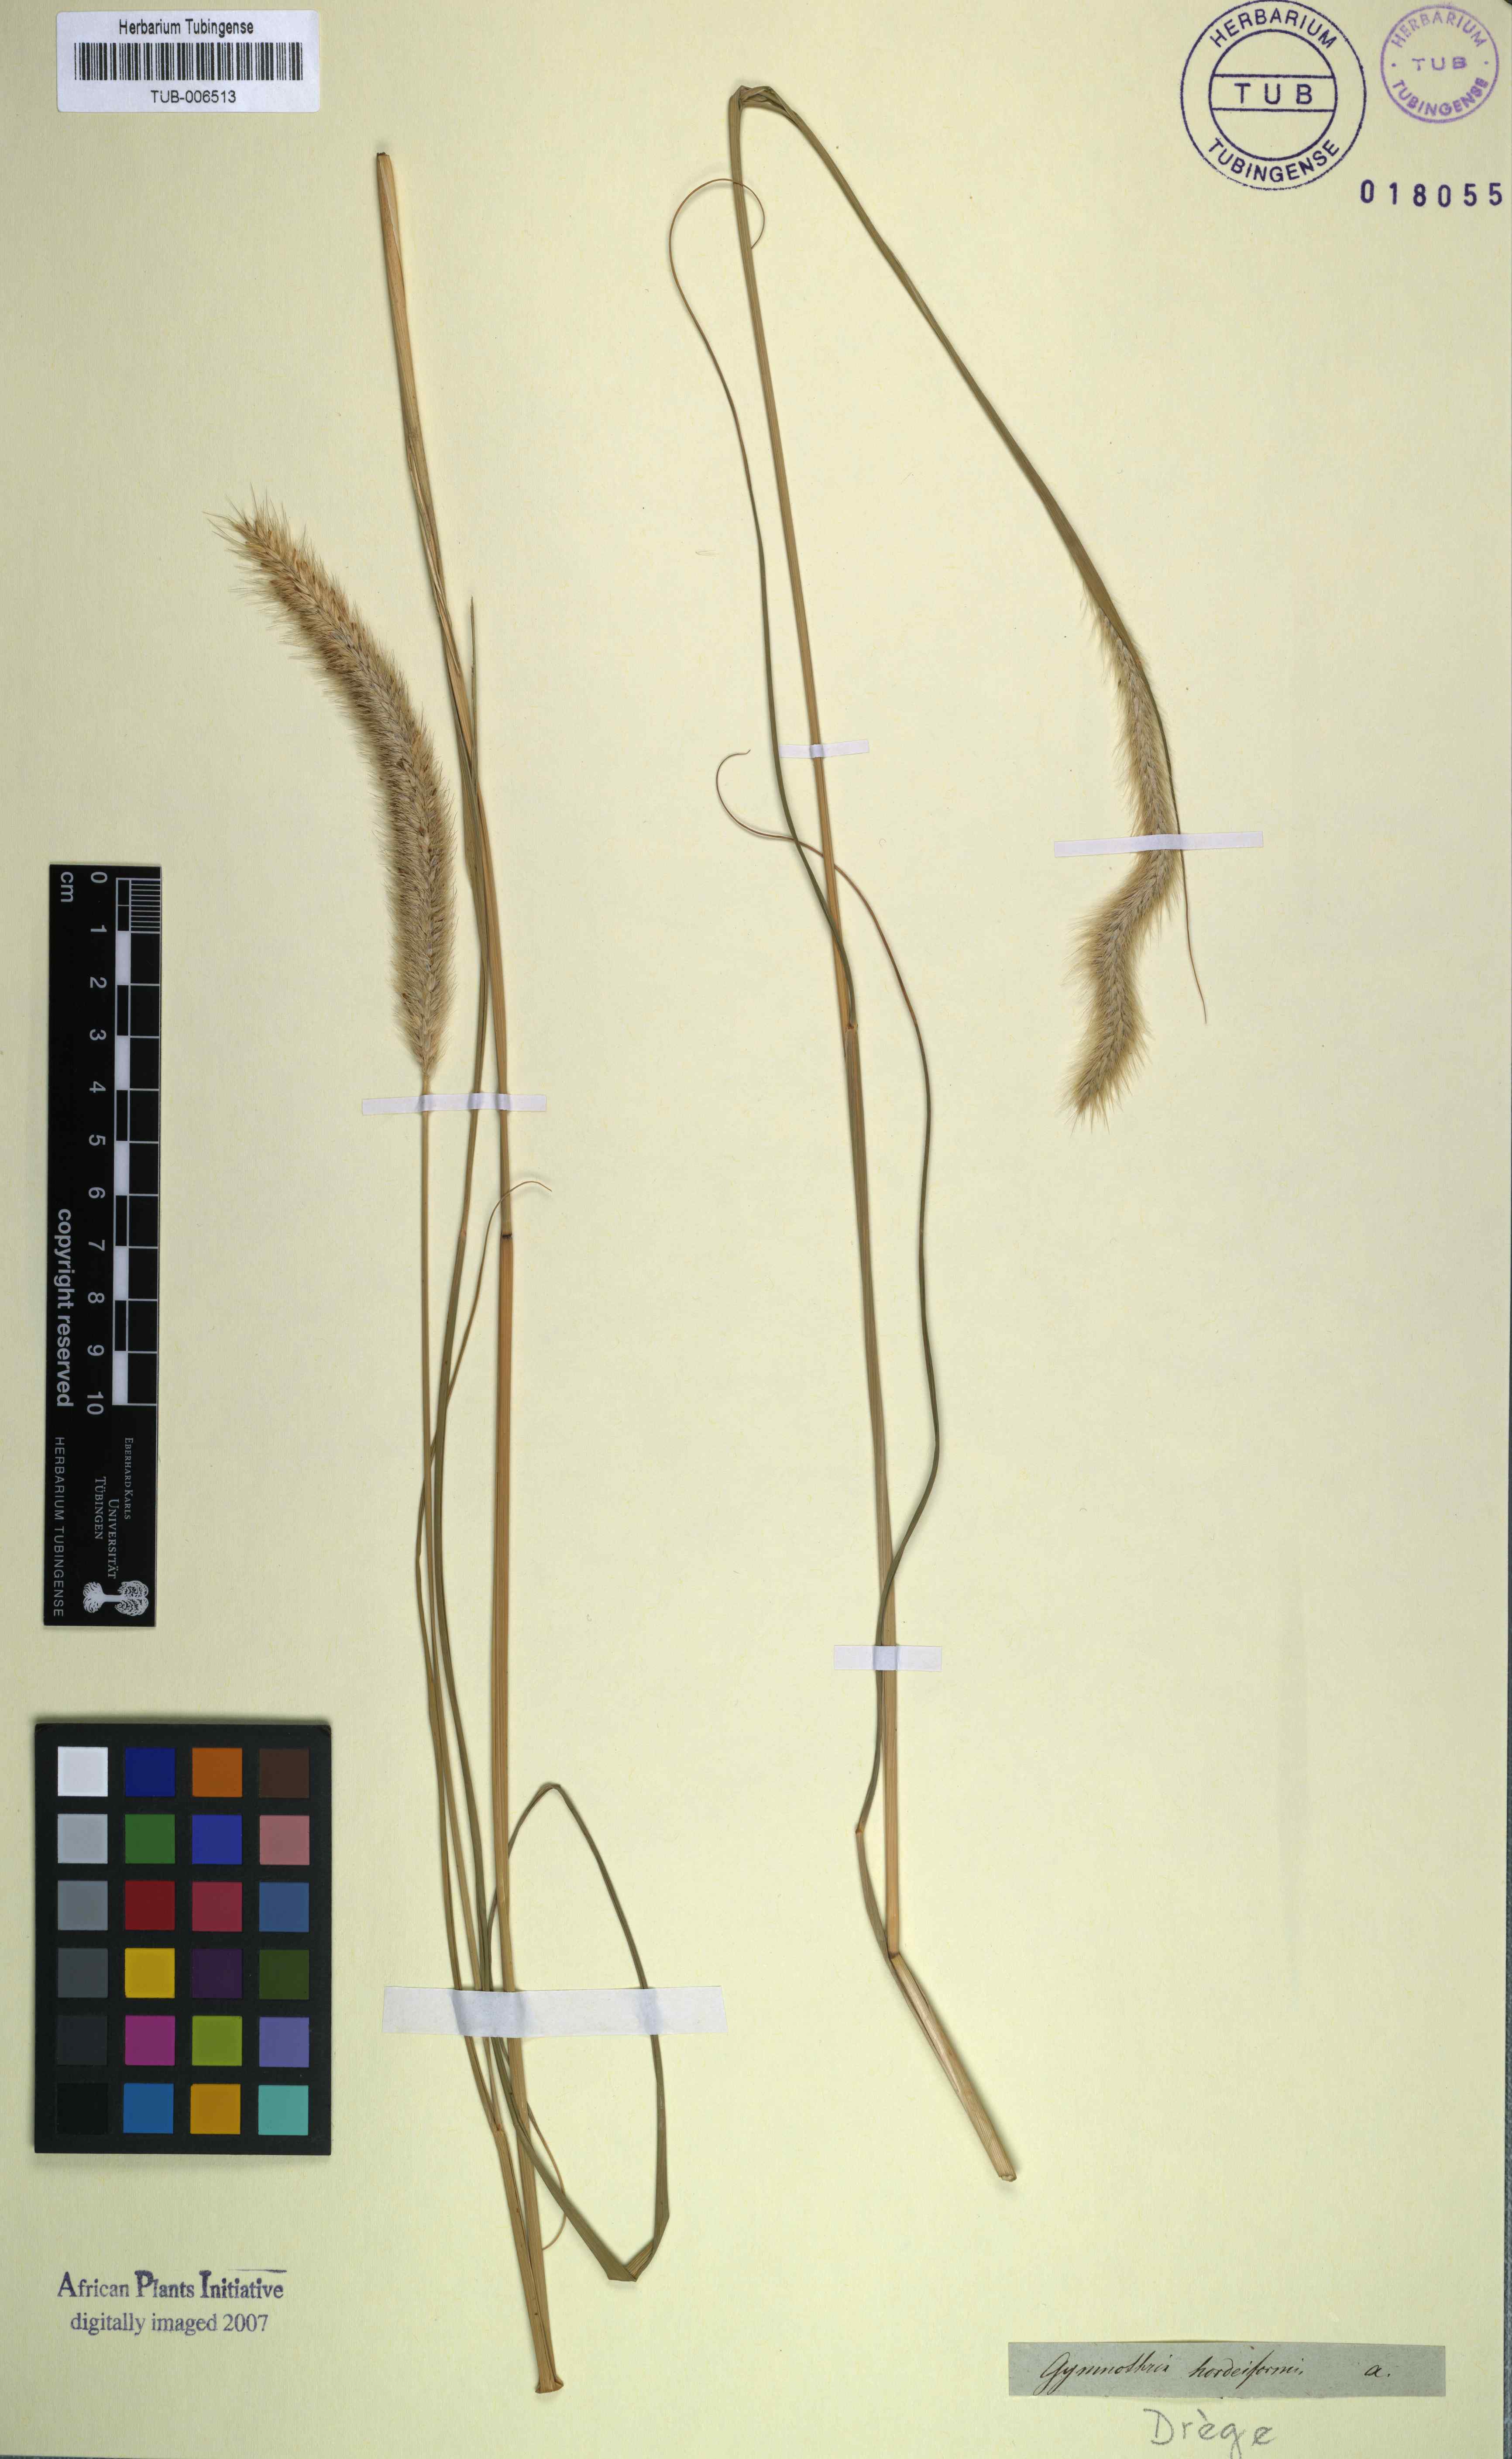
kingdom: Plantae
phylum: Tracheophyta
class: Liliopsida
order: Poales
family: Poaceae
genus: Cenchrus
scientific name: Cenchrus alopecuroides
